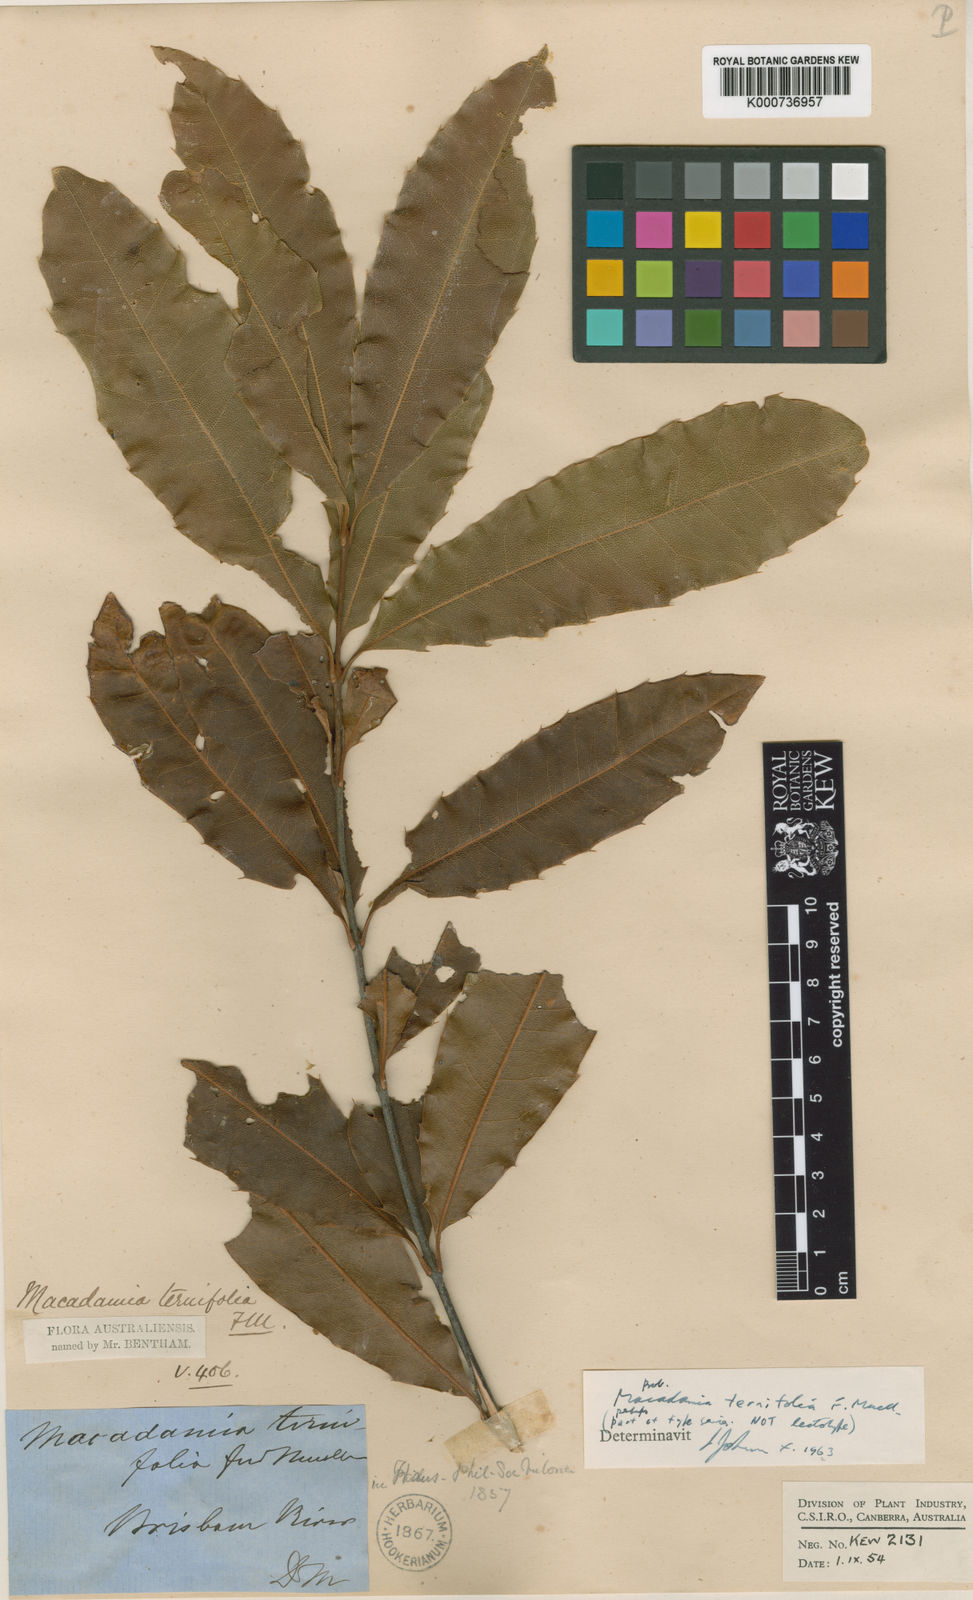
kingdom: Plantae
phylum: Tracheophyta
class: Magnoliopsida
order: Proteales
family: Proteaceae
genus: Macadamia
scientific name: Macadamia ternifolia
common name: Australian-nut
